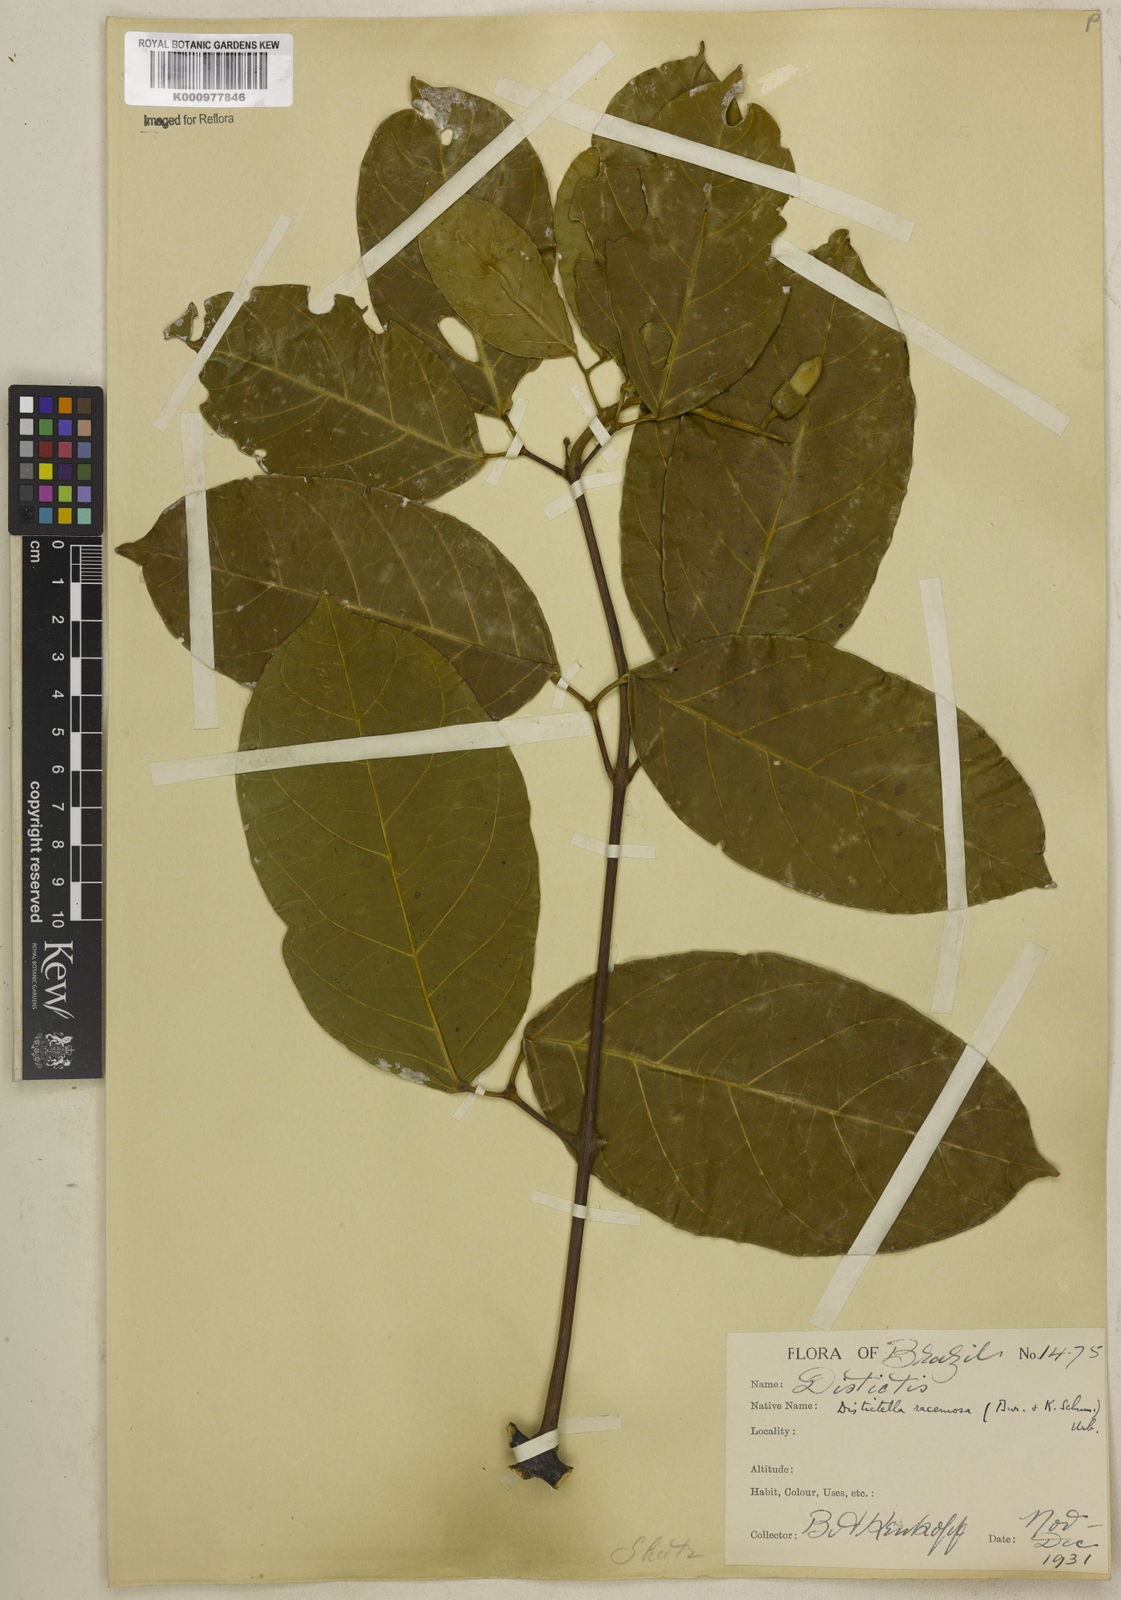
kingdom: Plantae
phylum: Tracheophyta
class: Magnoliopsida
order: Lamiales
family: Bignoniaceae
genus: Amphilophium
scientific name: Amphilophium racemosum
